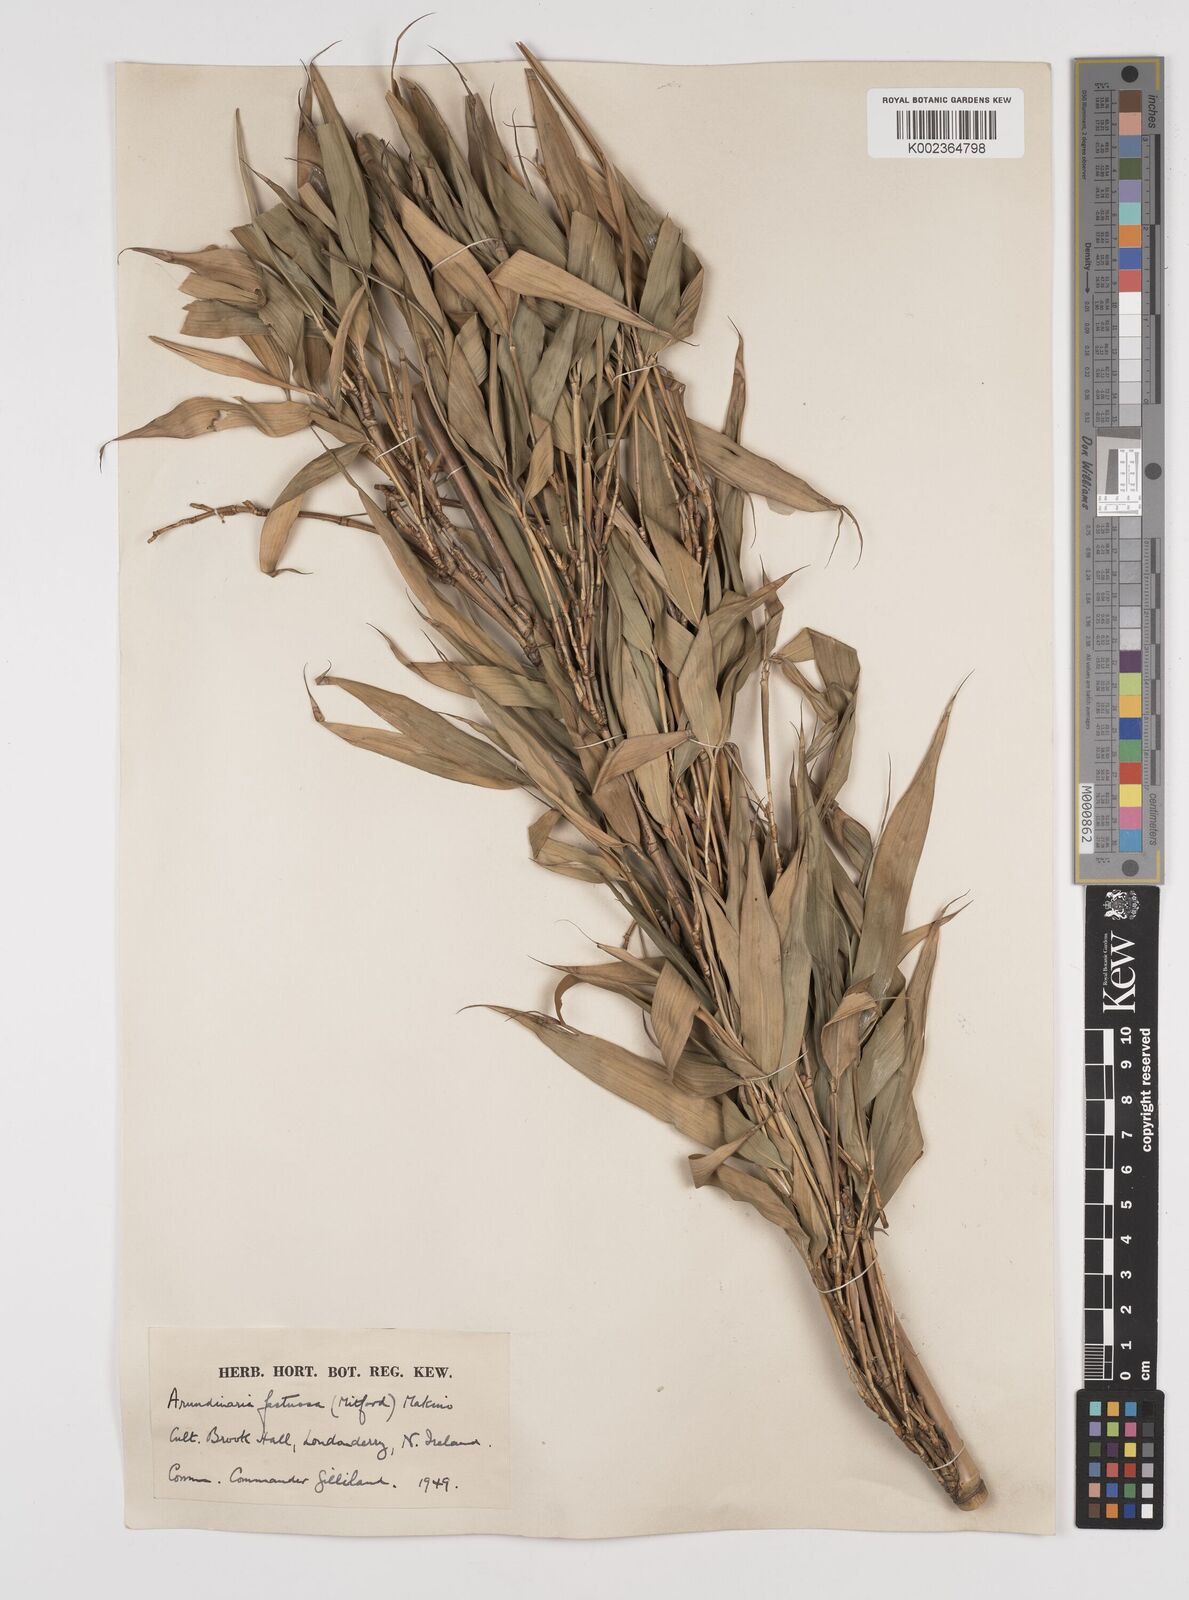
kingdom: Plantae
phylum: Tracheophyta
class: Liliopsida
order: Poales
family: Poaceae
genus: Semiarundinaria
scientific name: Semiarundinaria
